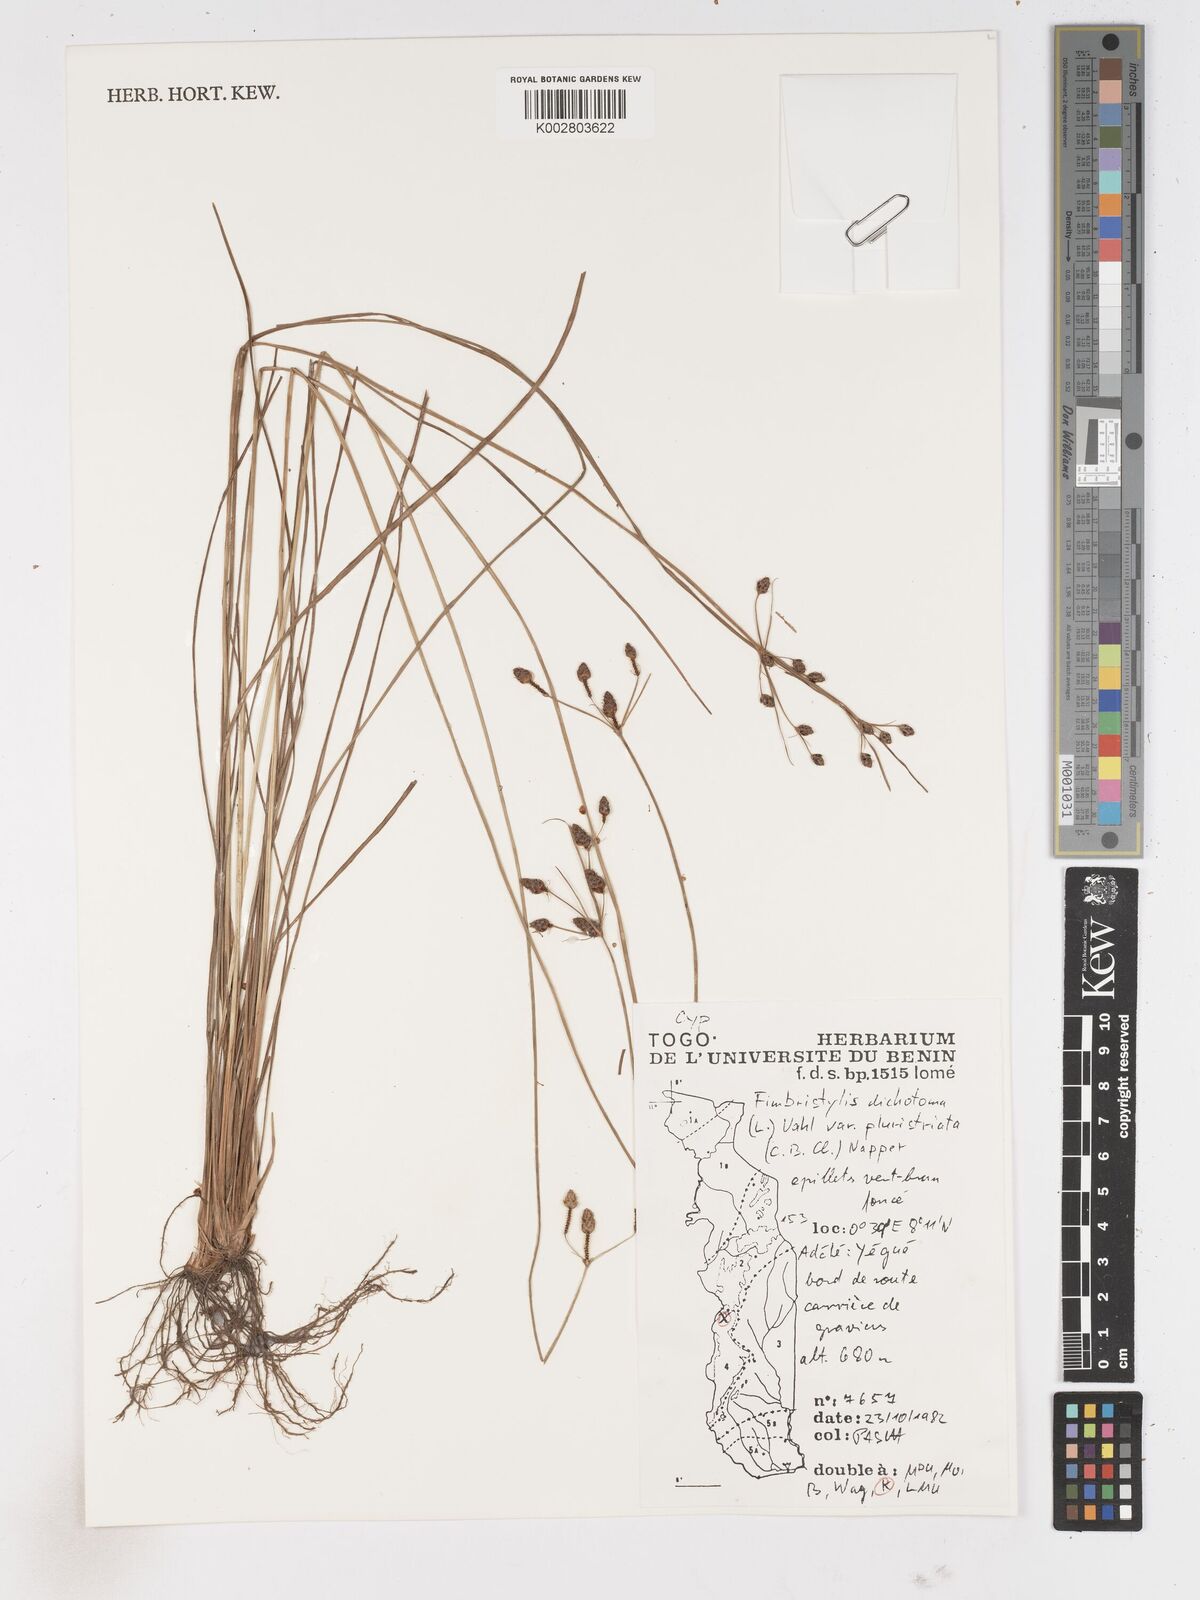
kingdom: Plantae
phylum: Tracheophyta
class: Liliopsida
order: Poales
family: Cyperaceae
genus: Fimbristylis
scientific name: Fimbristylis dichotoma
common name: Forked fimbry
